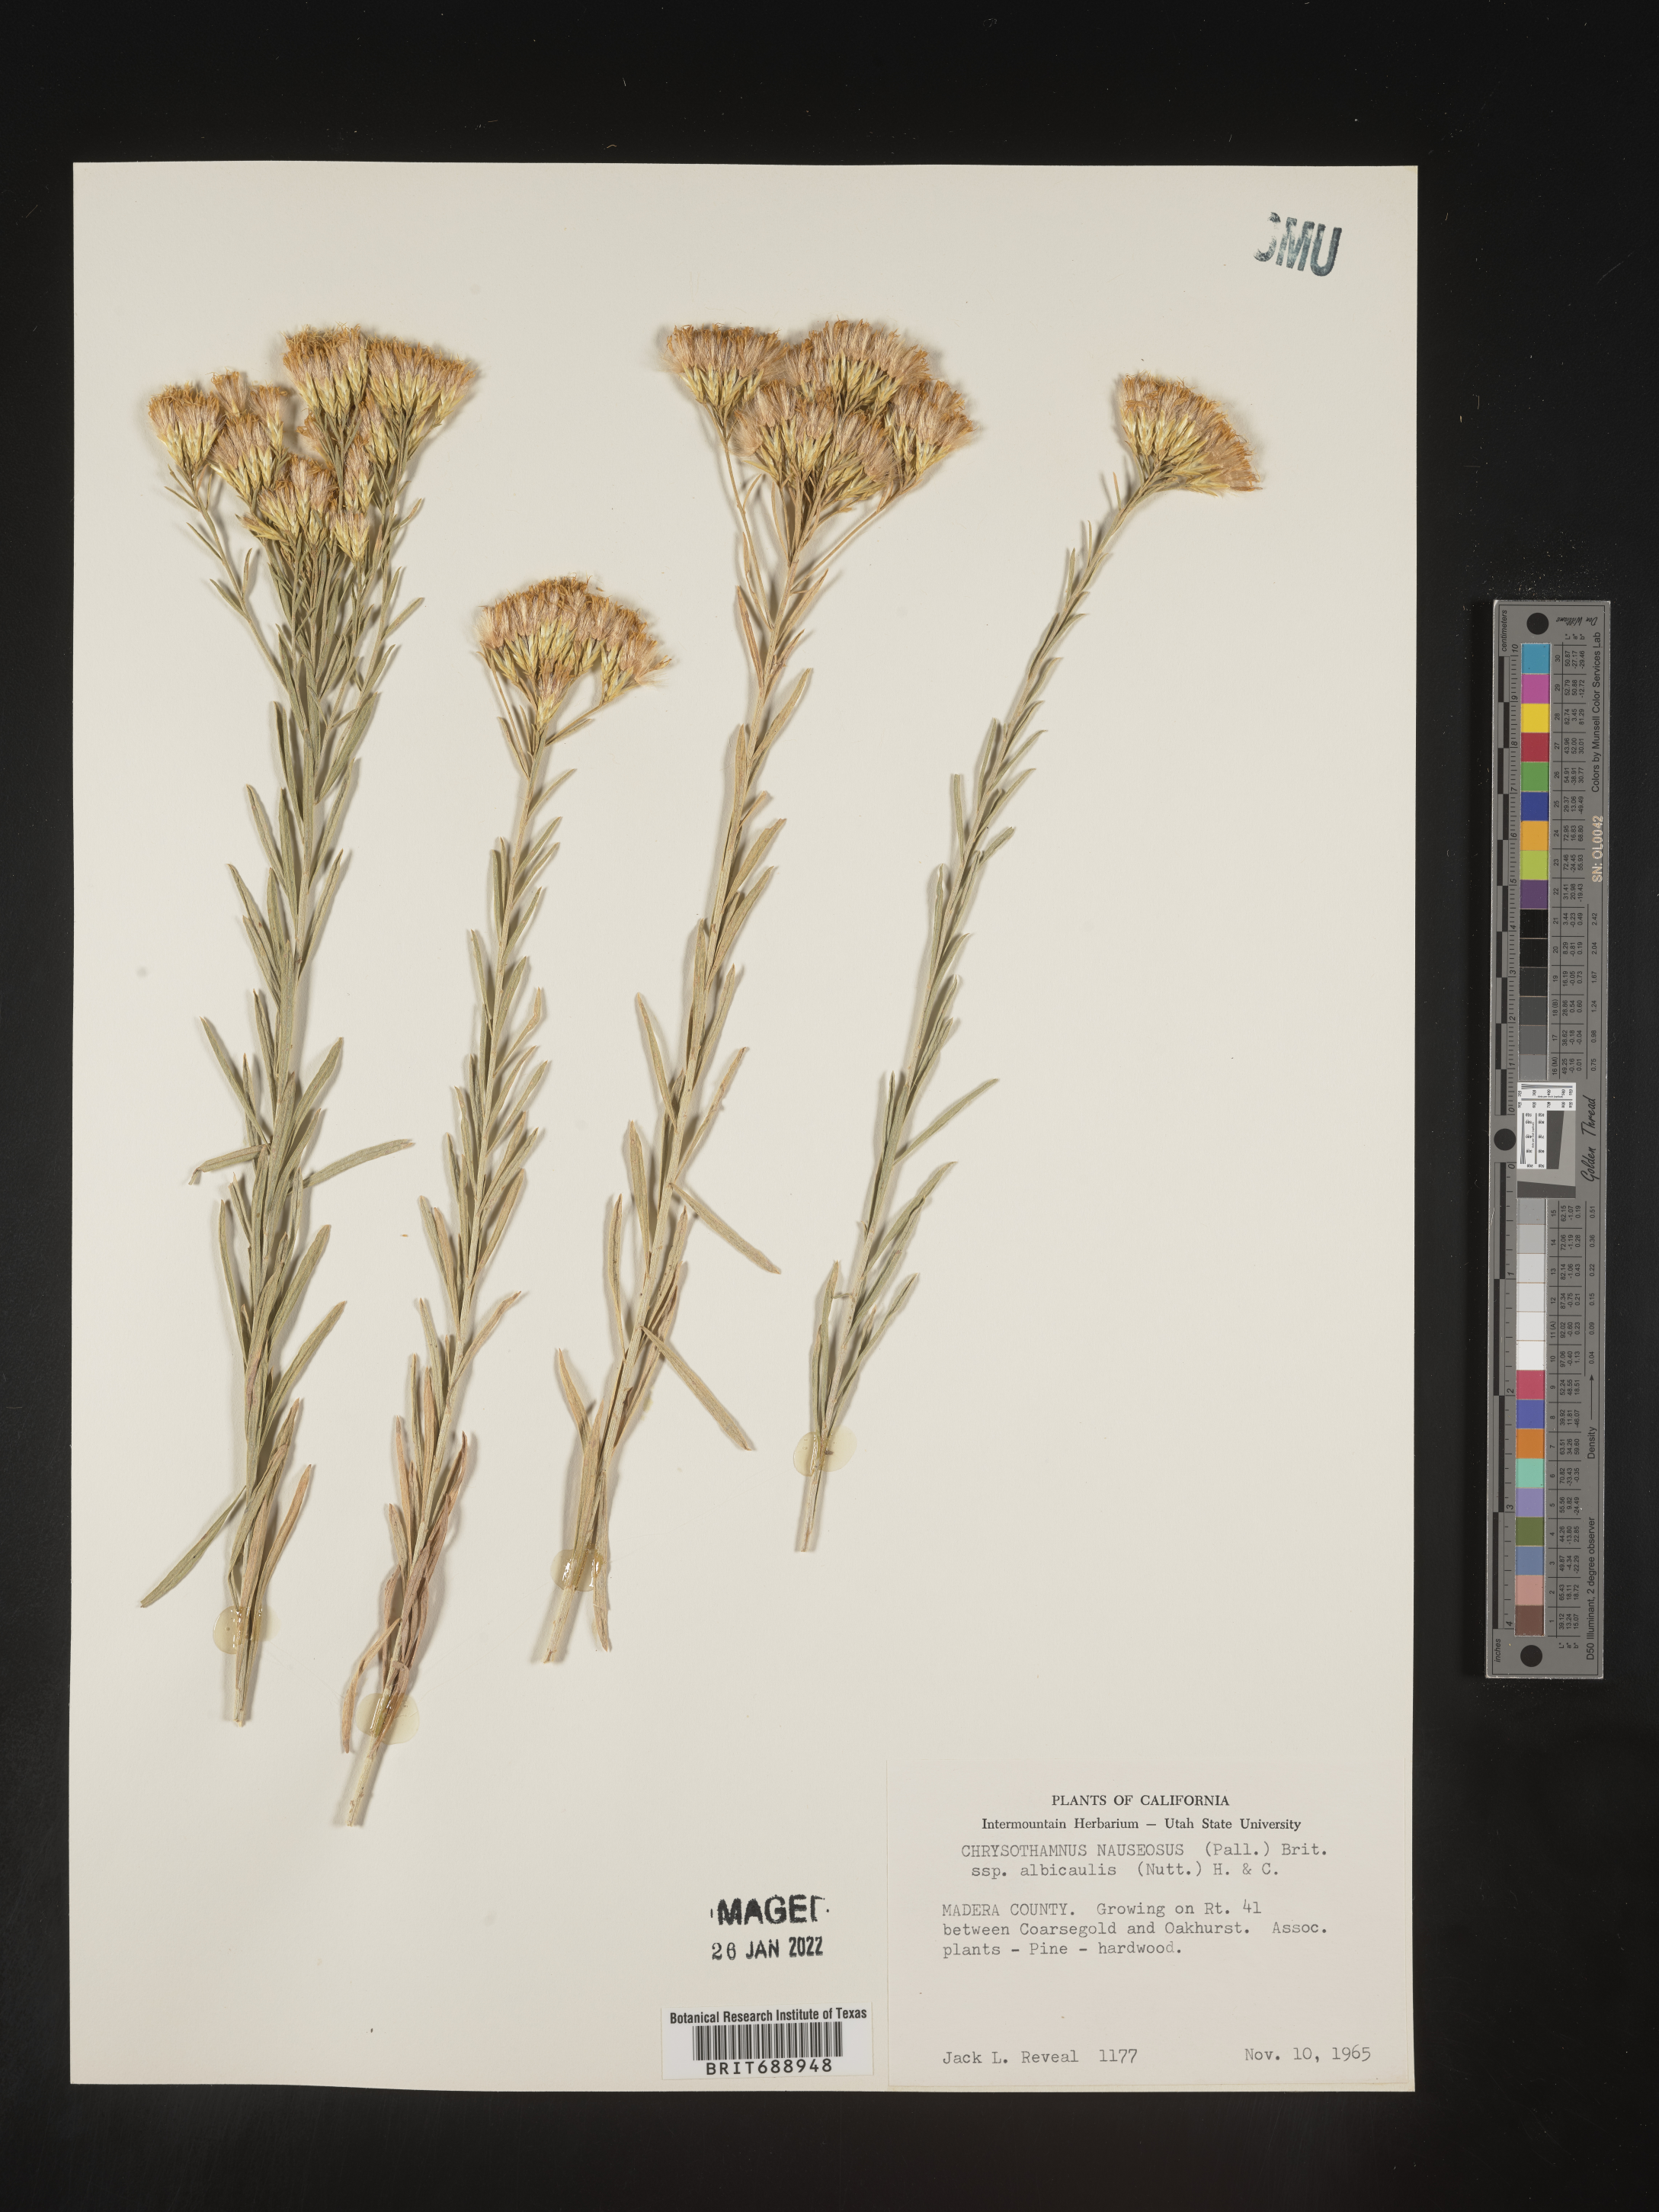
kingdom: Plantae
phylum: Tracheophyta
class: Magnoliopsida
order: Asterales
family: Asteraceae
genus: Ericameria
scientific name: Ericameria nauseosa
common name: Rubber rabbitbrush
